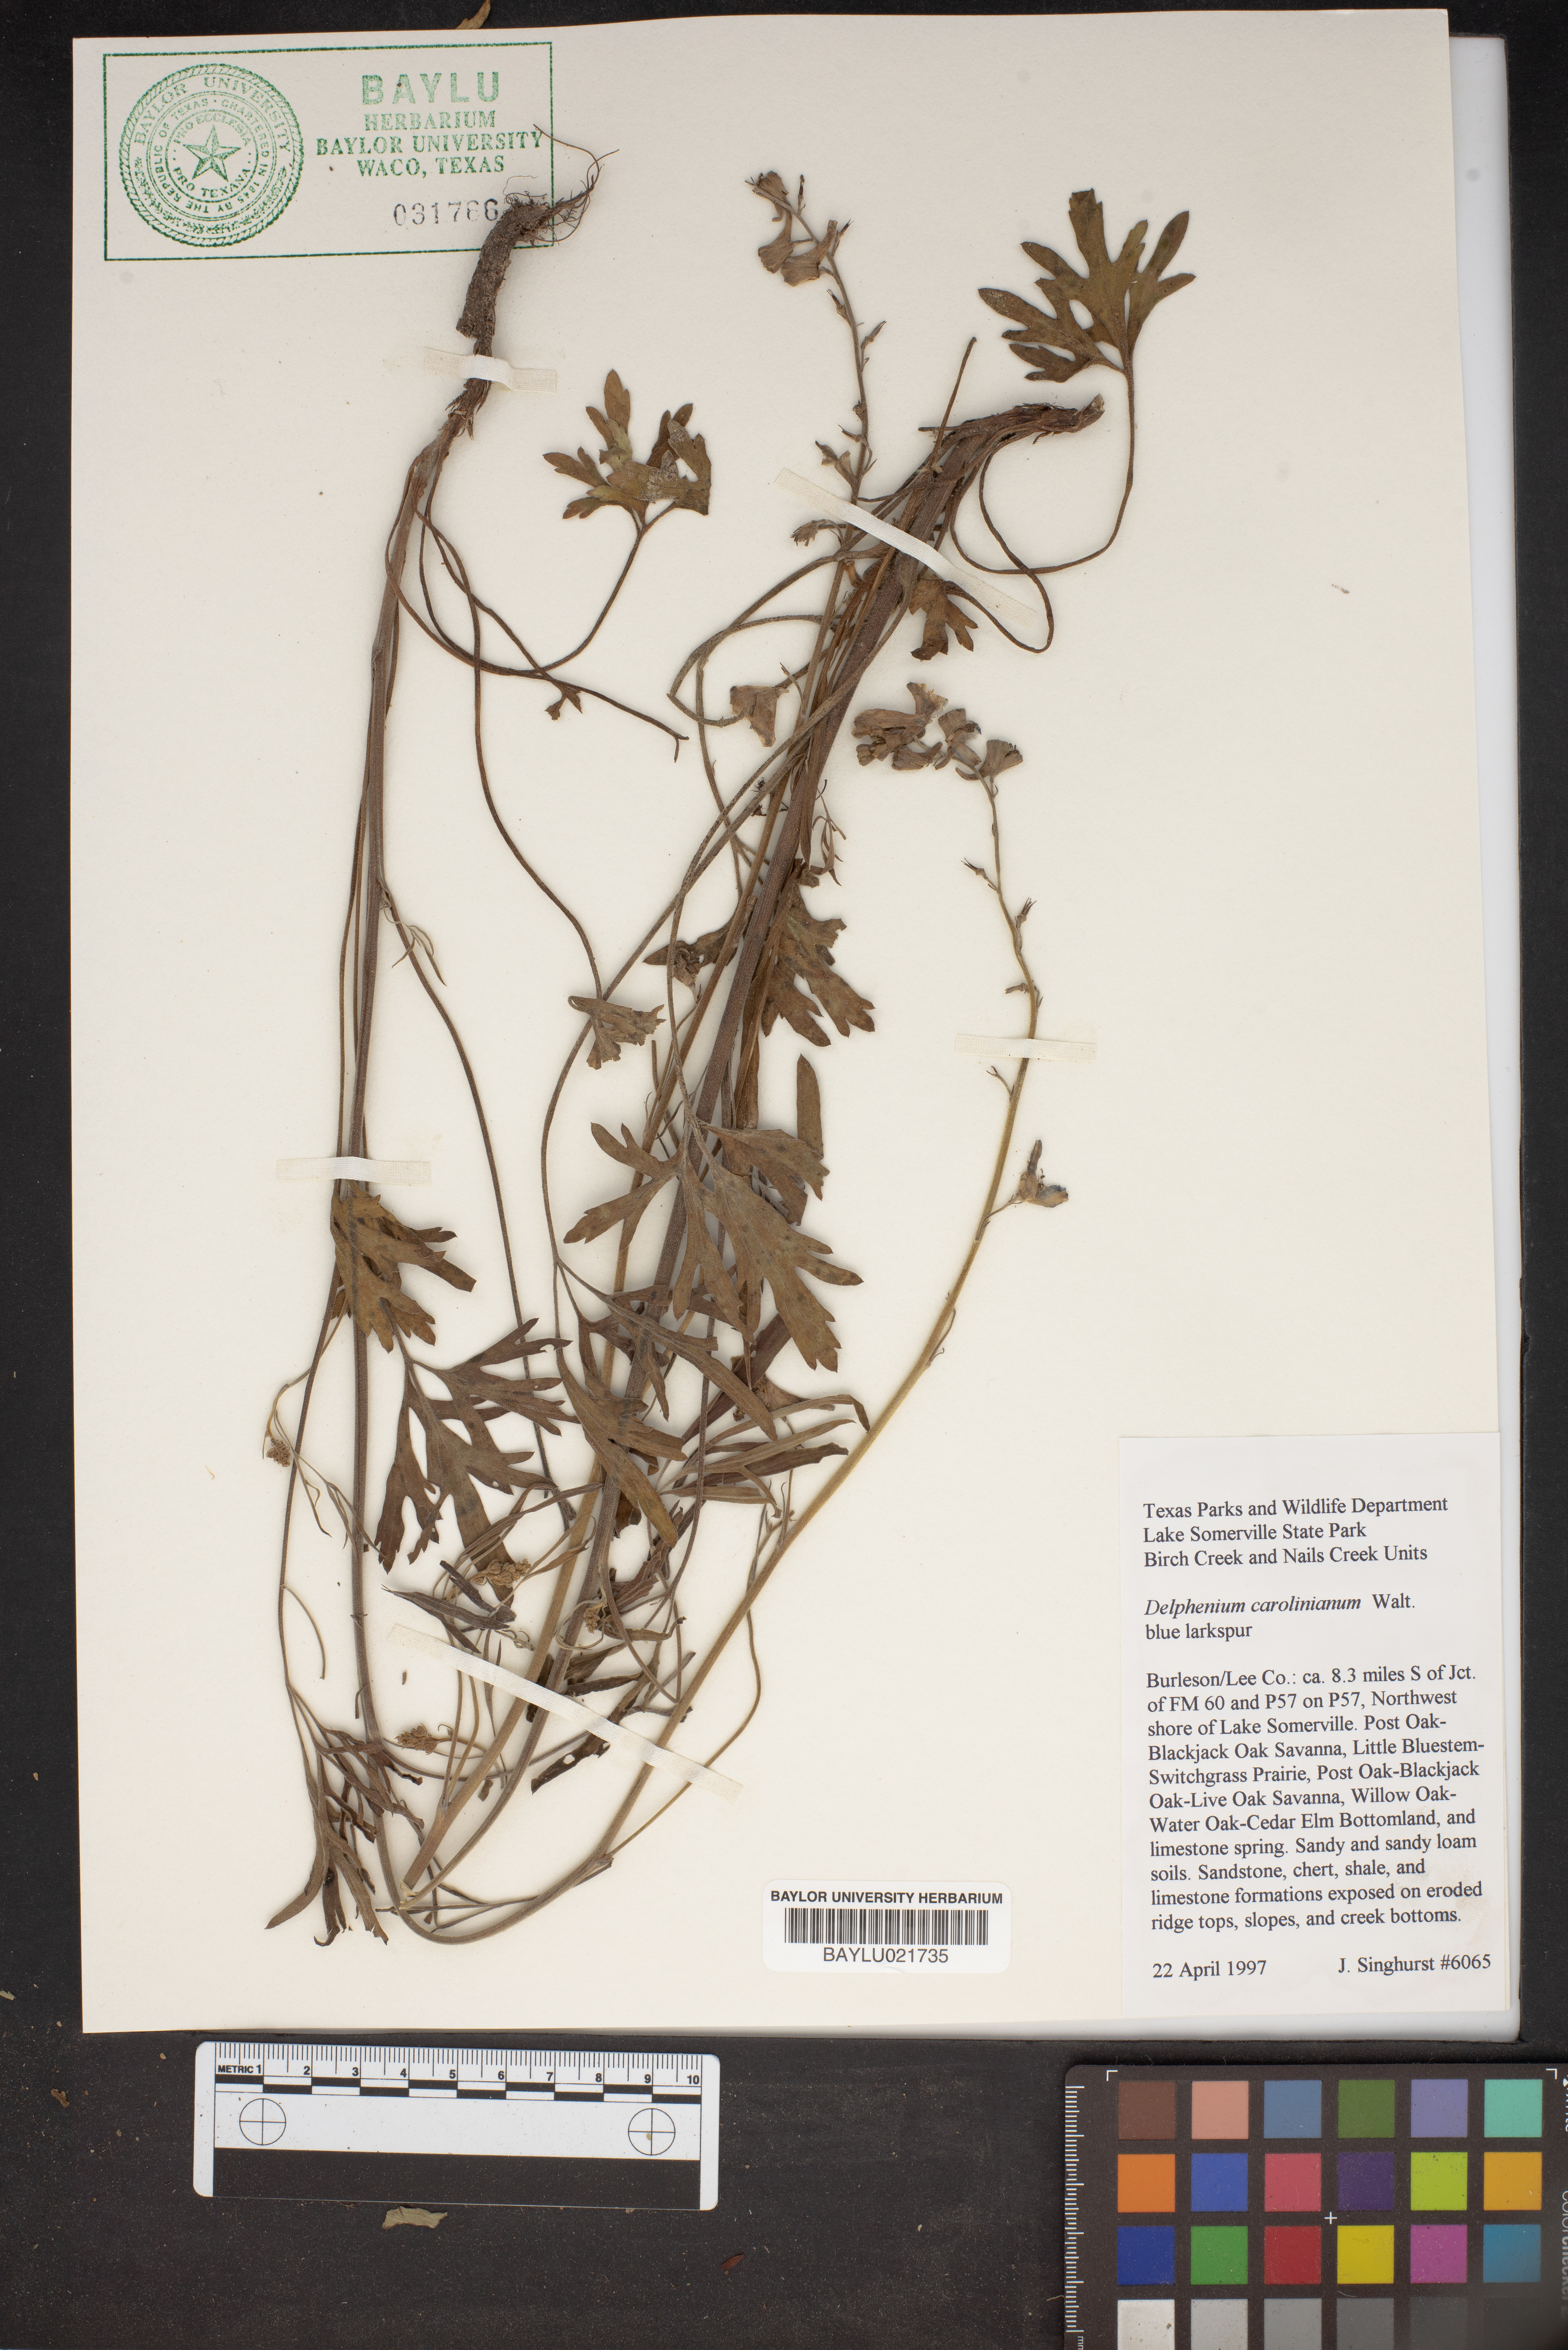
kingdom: Plantae
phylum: Tracheophyta
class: Magnoliopsida
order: Ranunculales
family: Ranunculaceae
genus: Delphinium
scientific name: Delphinium carolinianum
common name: Carolina larkspur
